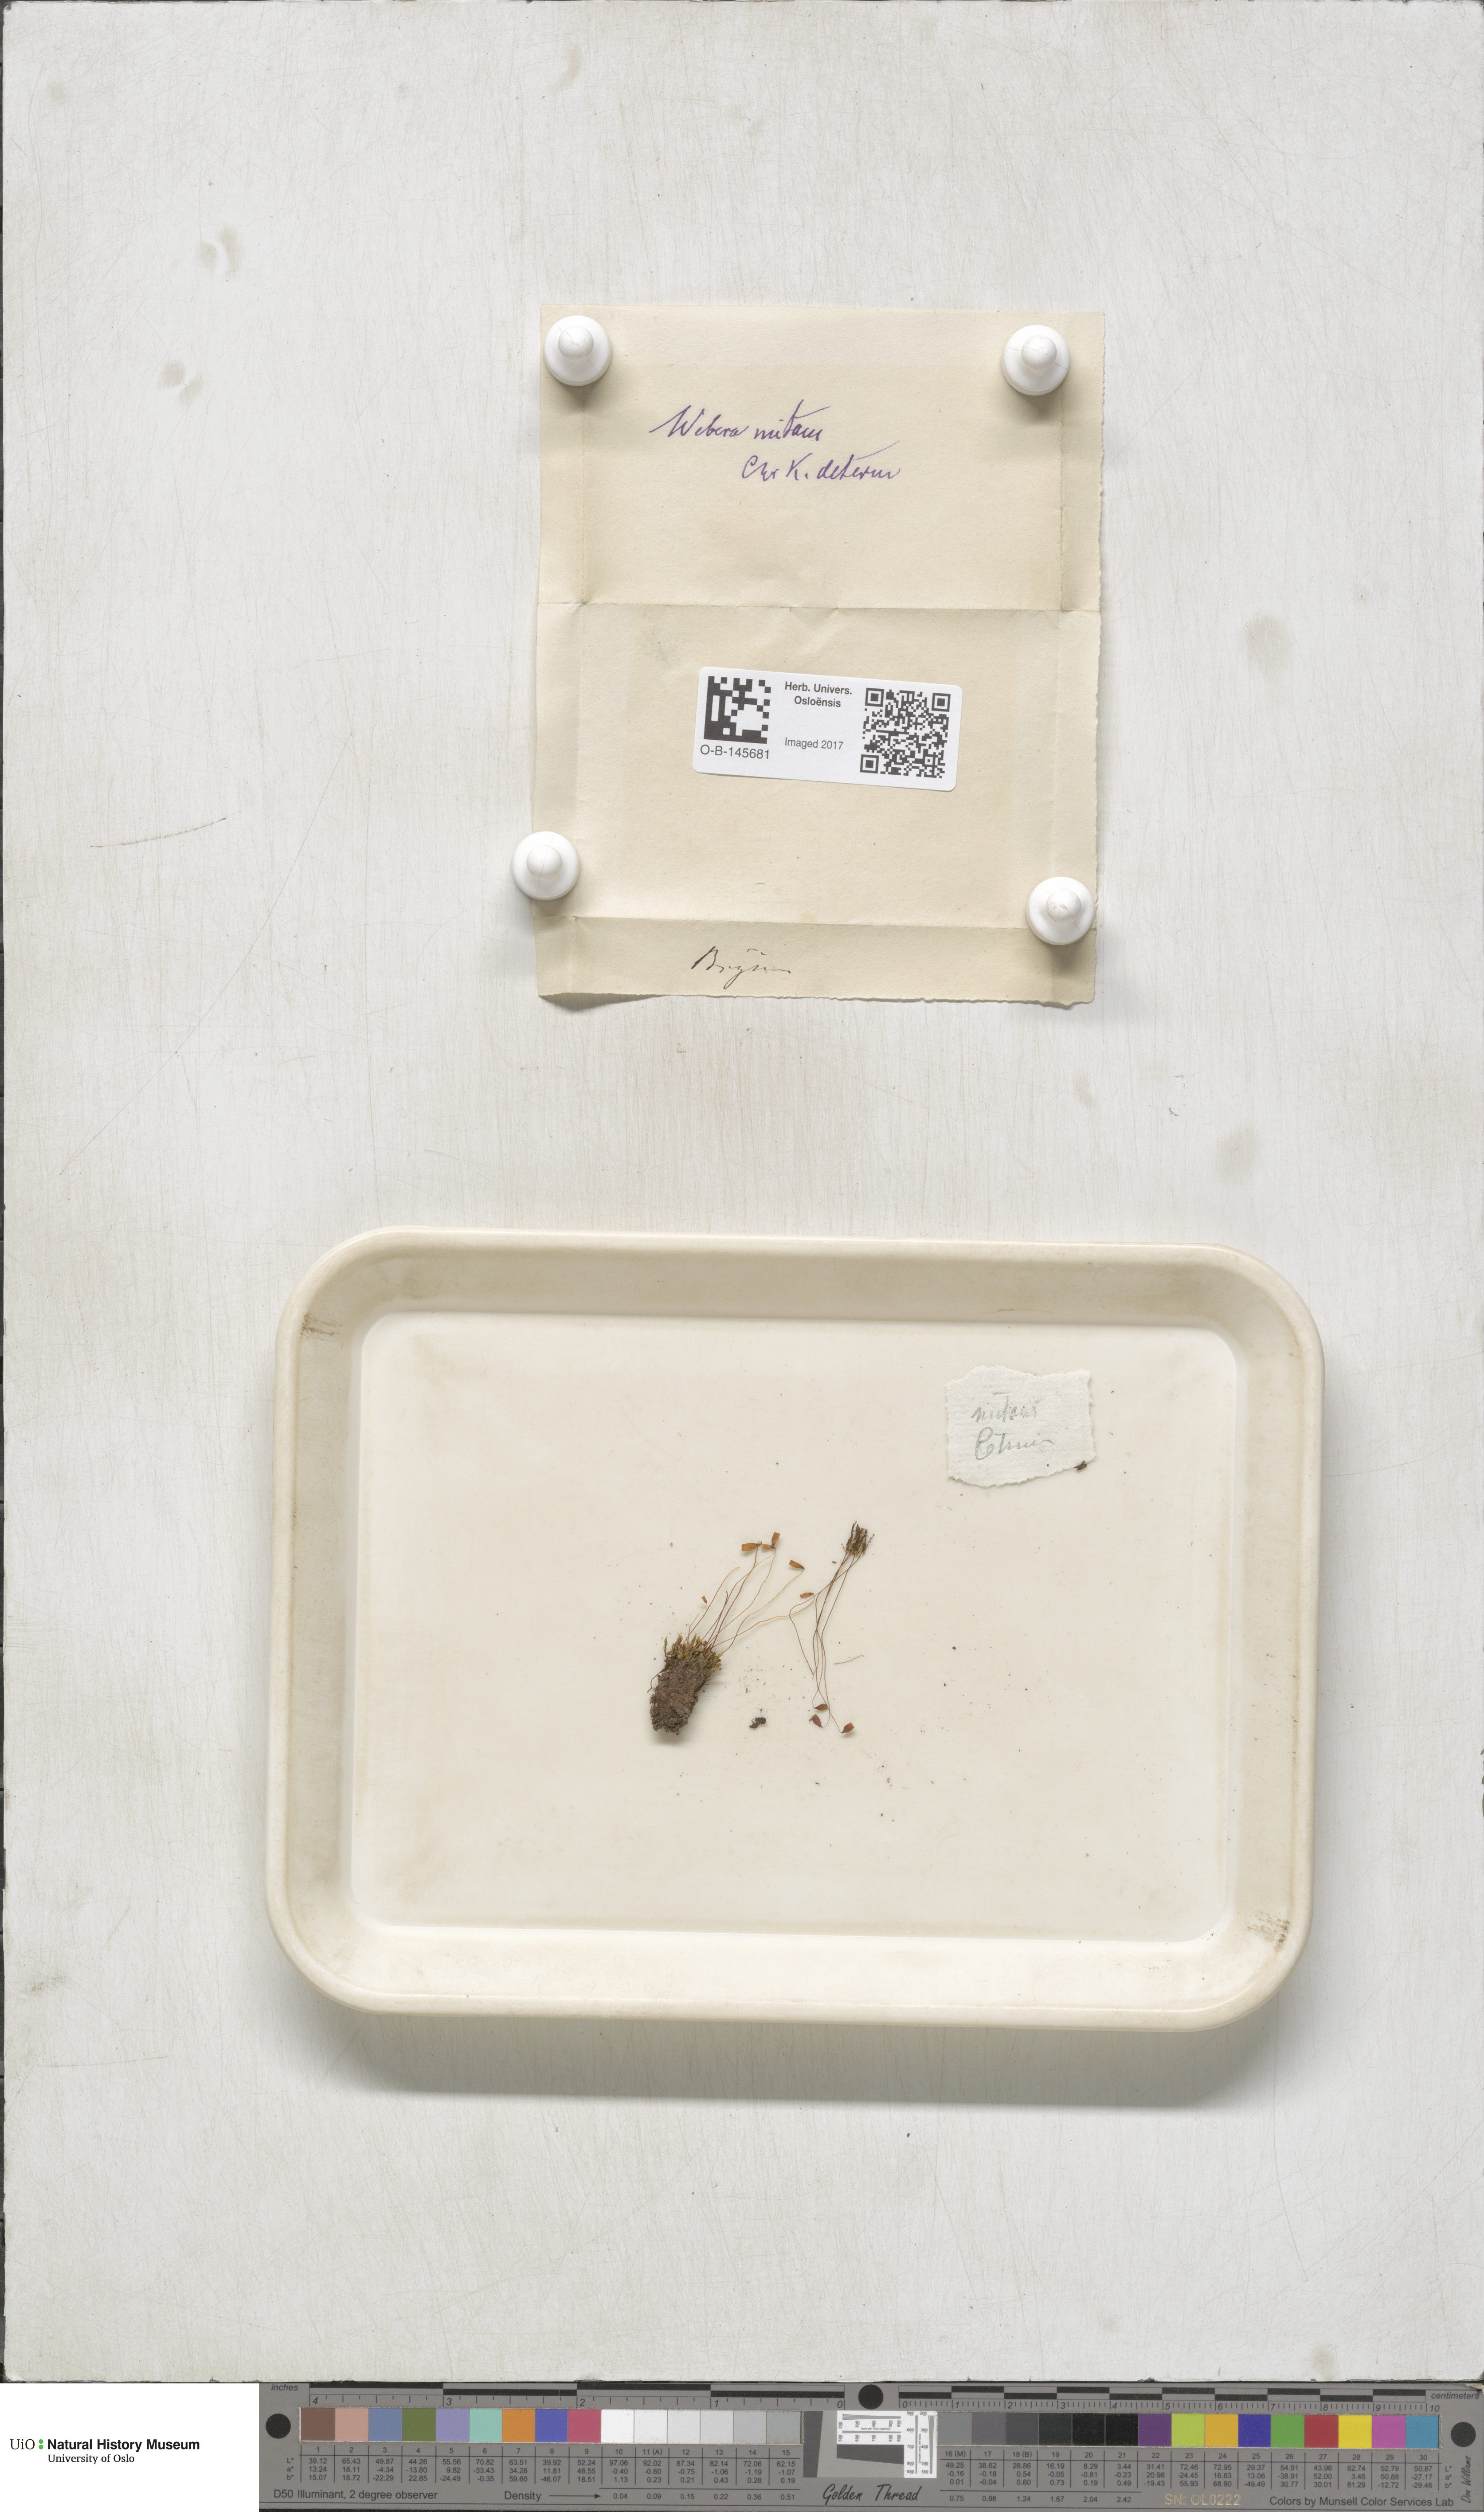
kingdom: Plantae
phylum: Bryophyta
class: Bryopsida
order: Bryales
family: Mniaceae
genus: Pohlia
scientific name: Pohlia nutans
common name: Nodding thread-moss
